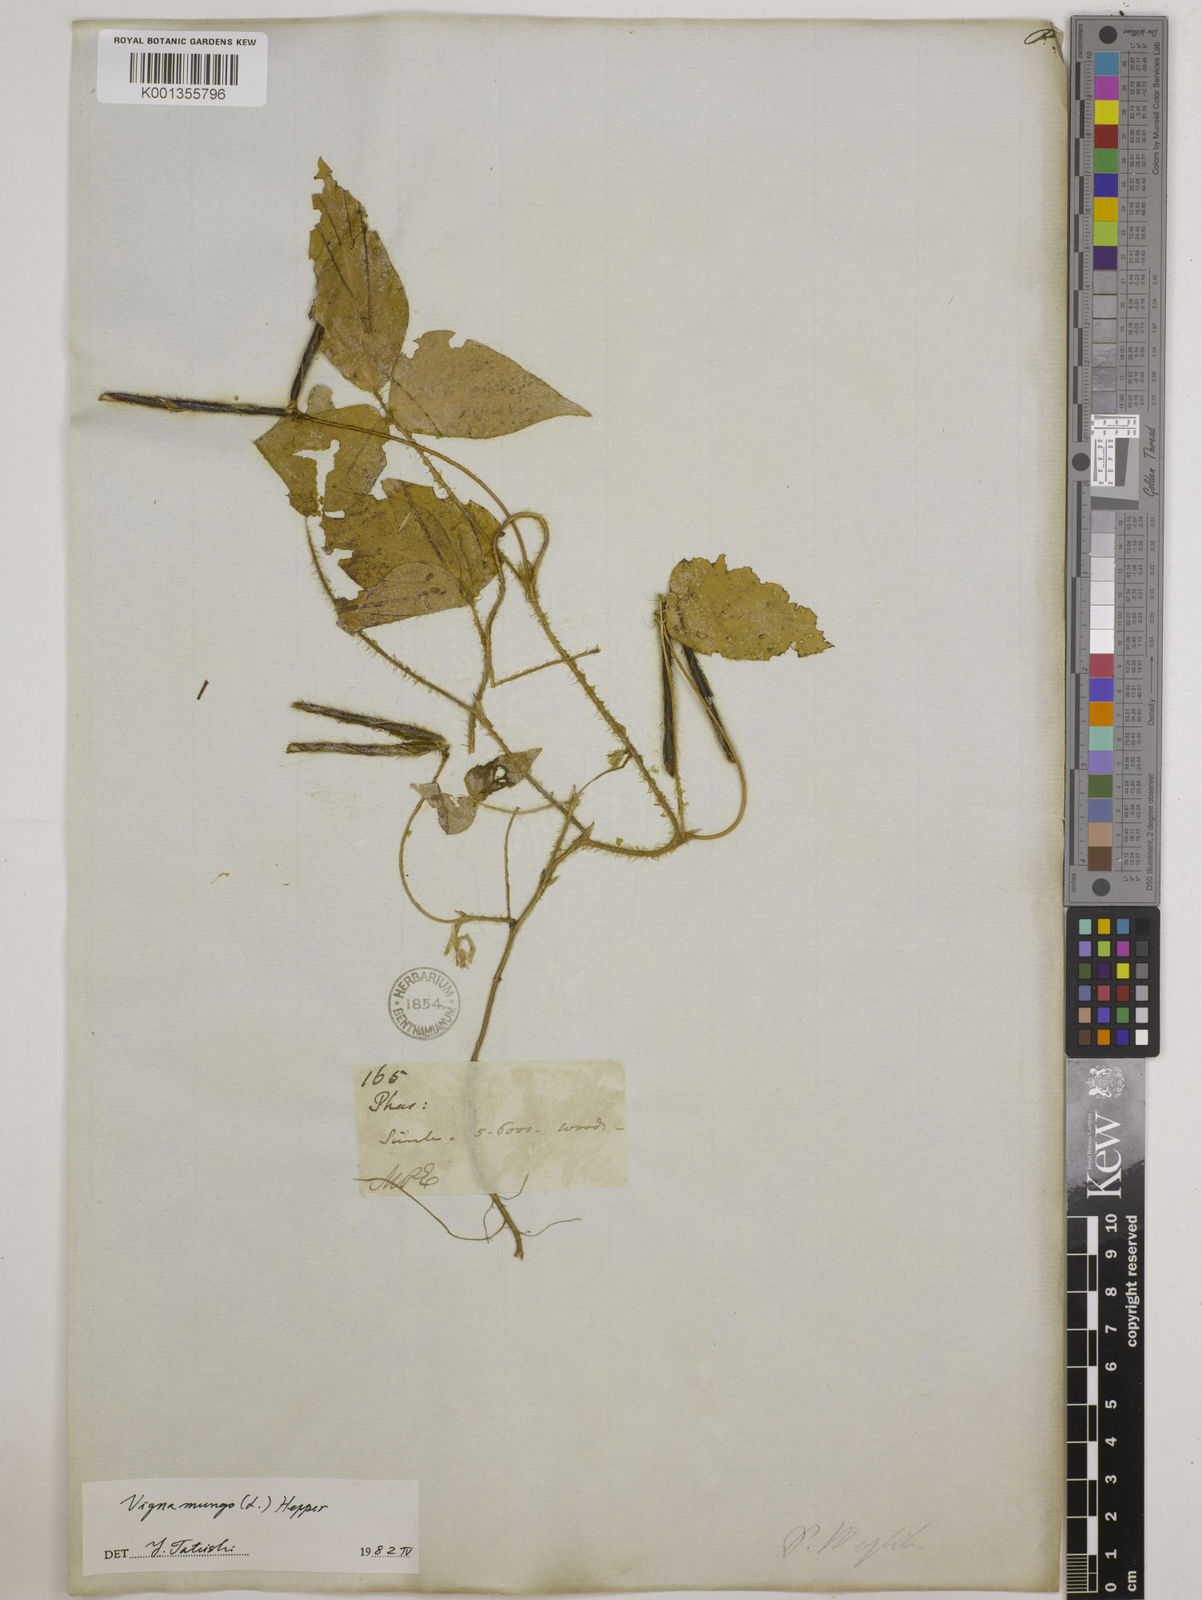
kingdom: Plantae
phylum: Tracheophyta
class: Magnoliopsida
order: Fabales
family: Fabaceae
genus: Vigna
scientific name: Vigna mungo
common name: Black gram
